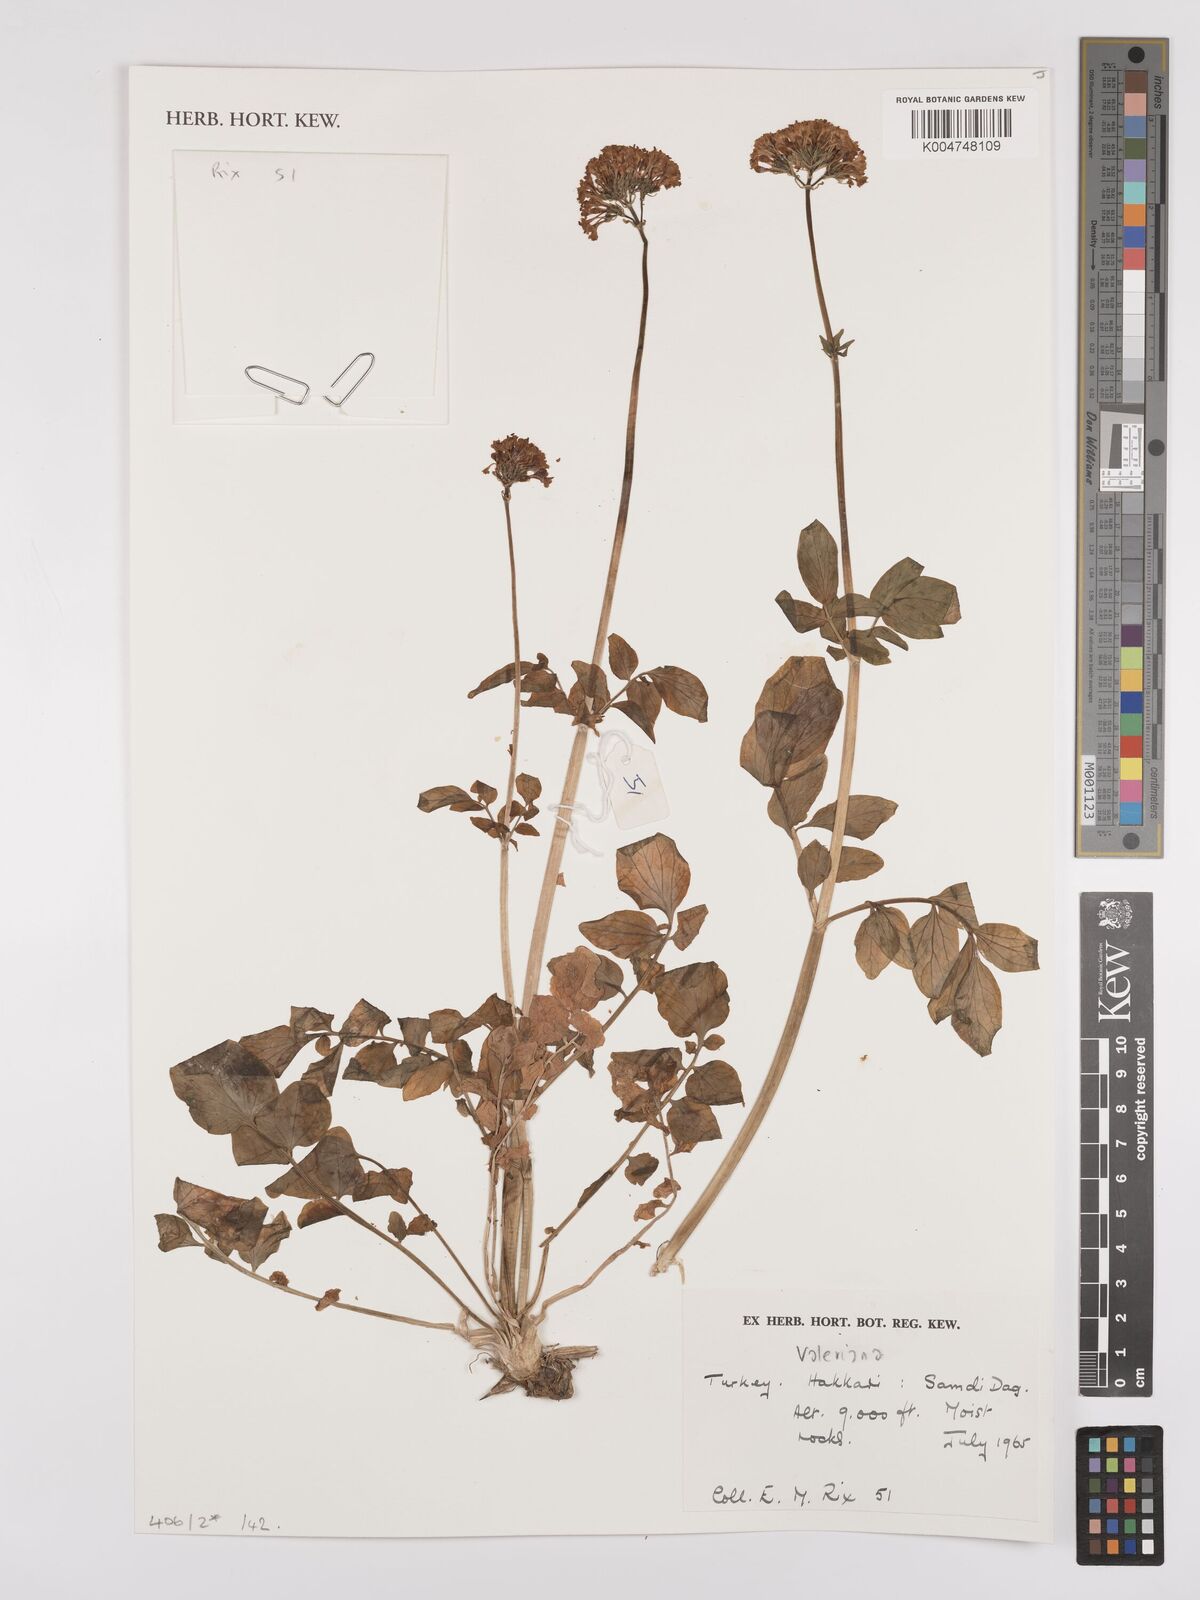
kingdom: Plantae
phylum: Tracheophyta
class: Magnoliopsida
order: Dipsacales
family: Caprifoliaceae
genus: Valeriana
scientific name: Valeriana
